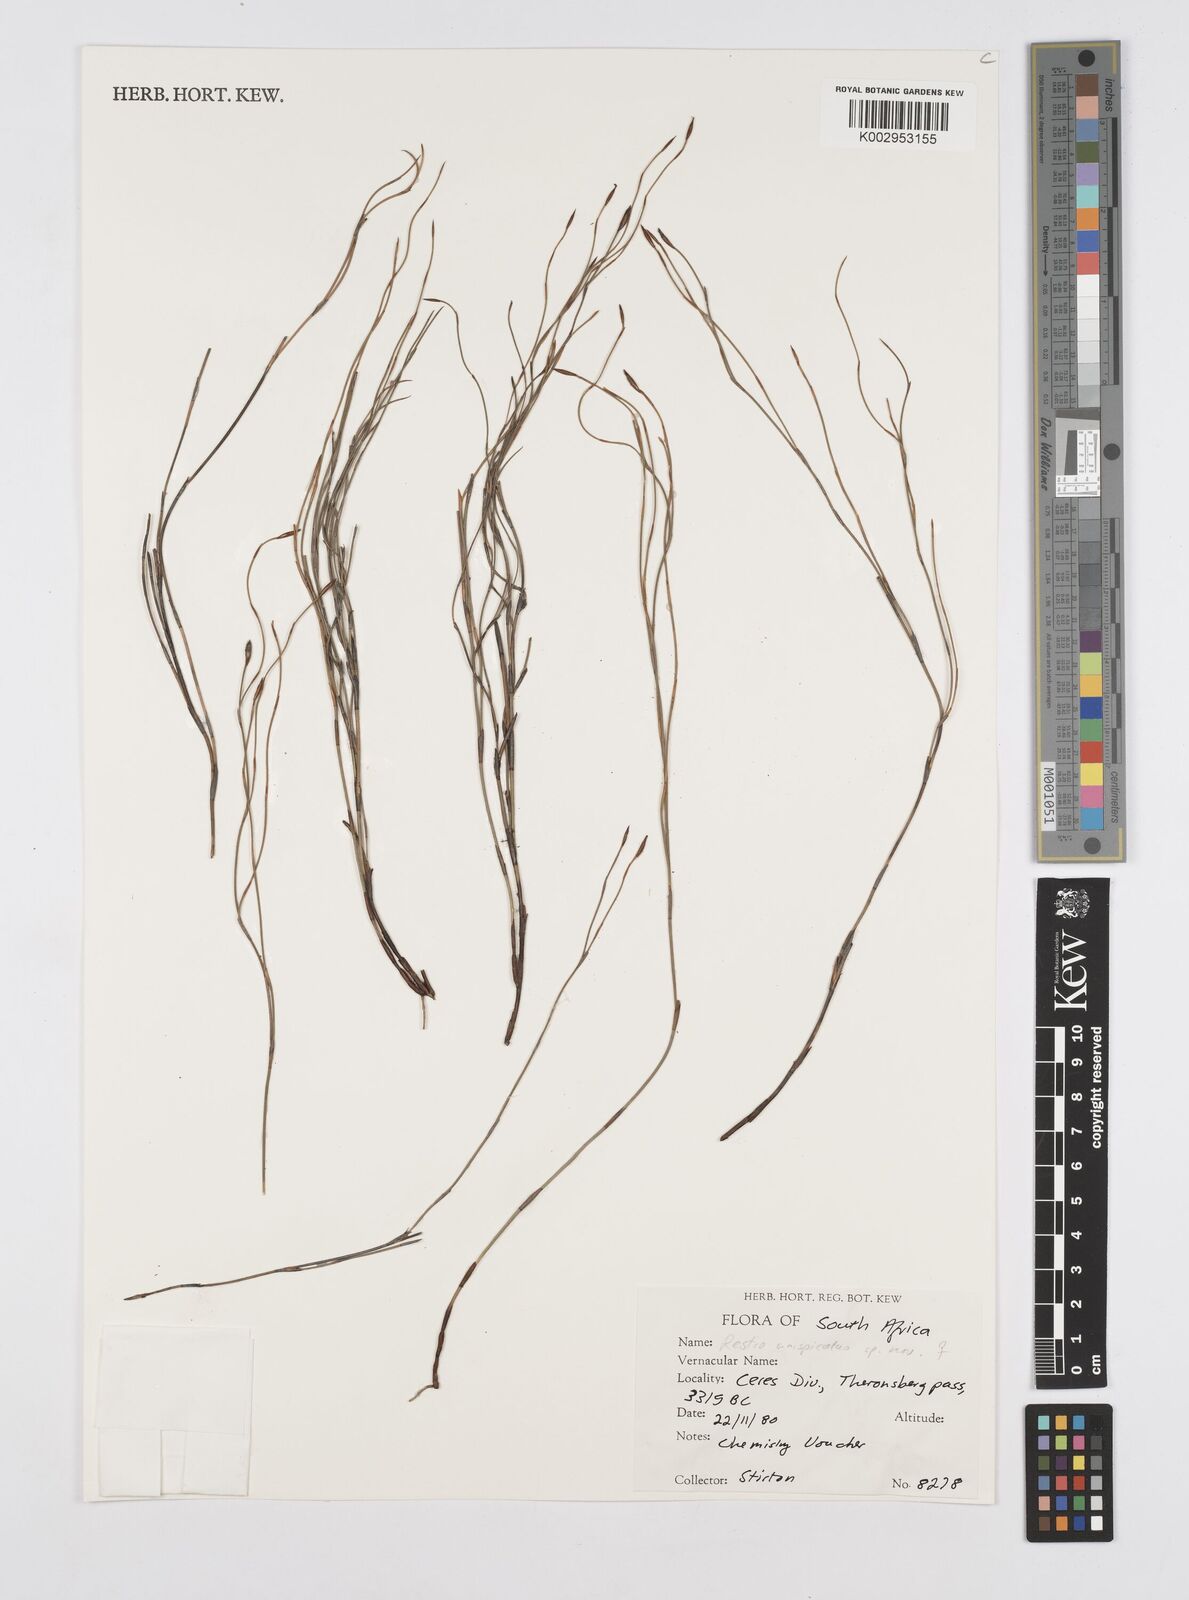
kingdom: Plantae
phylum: Tracheophyta
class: Liliopsida
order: Poales
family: Restionaceae
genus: Restio
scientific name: Restio unispicatus
